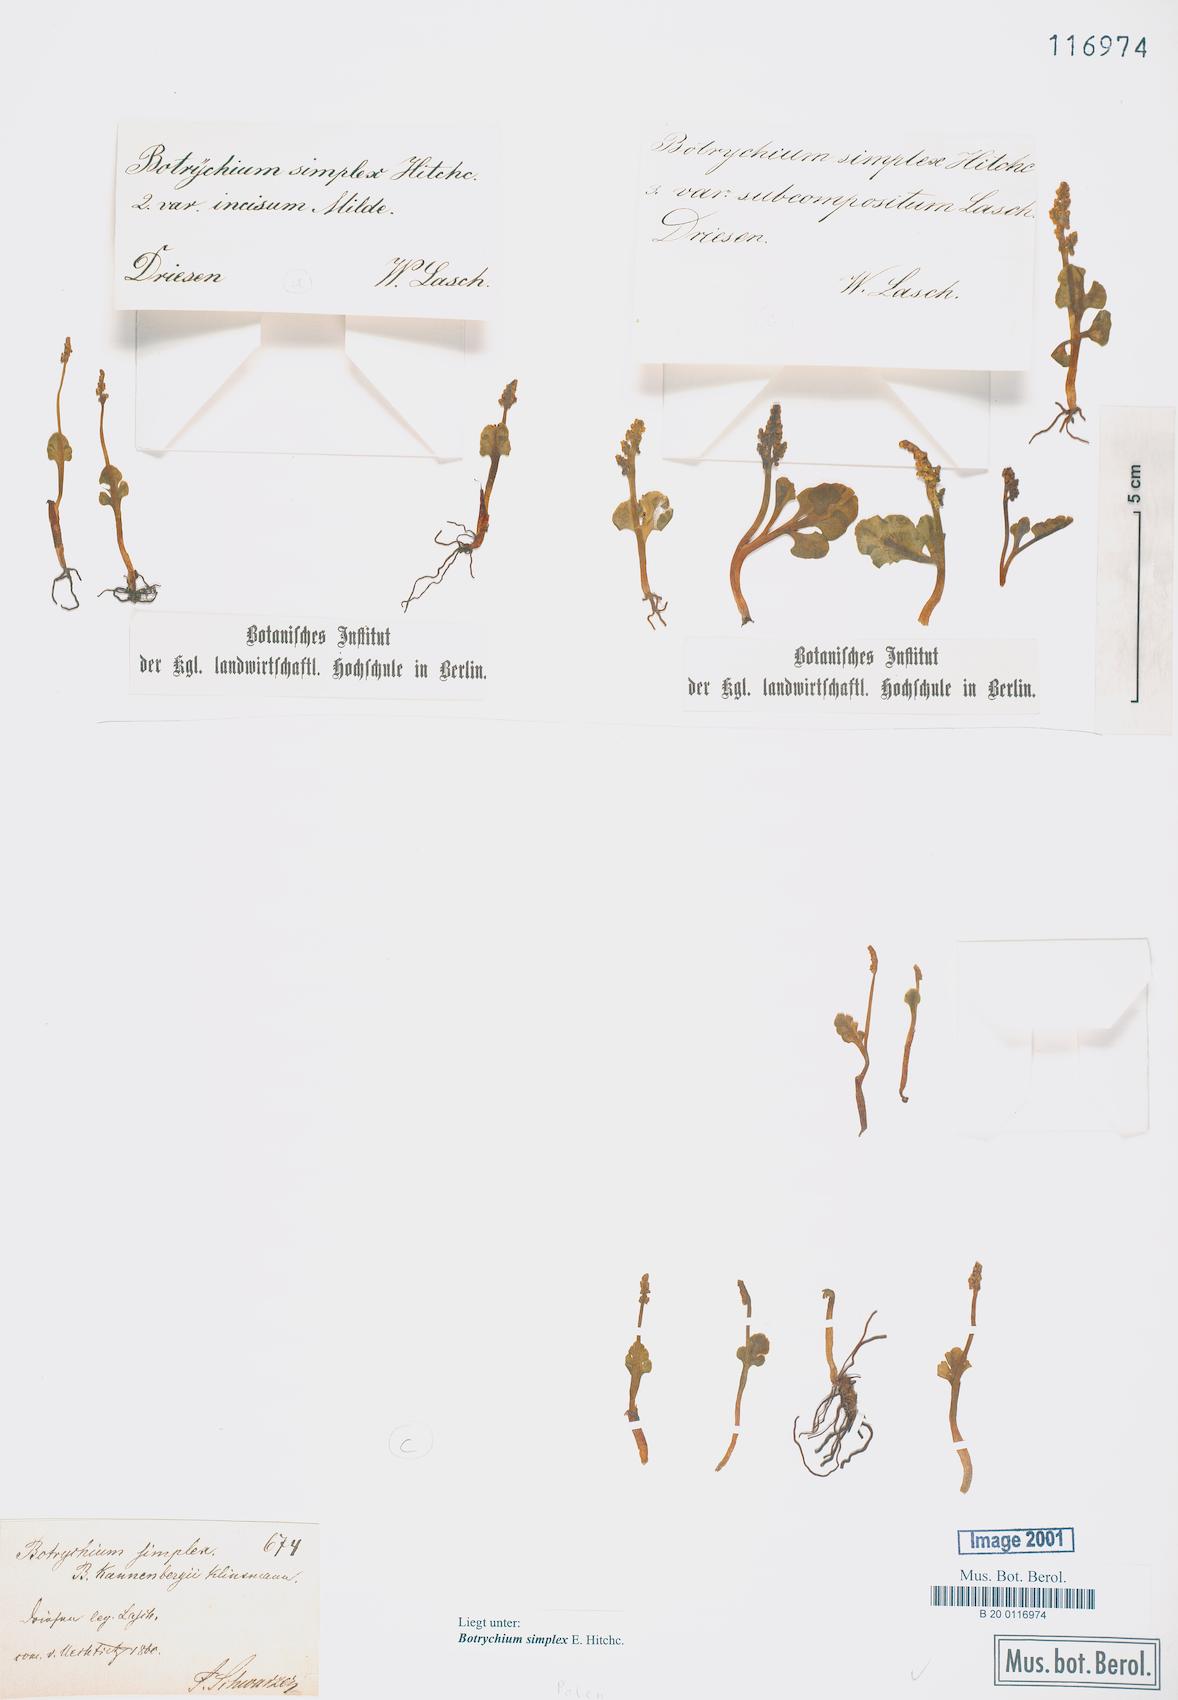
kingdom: Plantae
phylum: Tracheophyta
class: Polypodiopsida
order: Ophioglossales
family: Ophioglossaceae
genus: Botrychium
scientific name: Botrychium simplex
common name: Least moonwort
